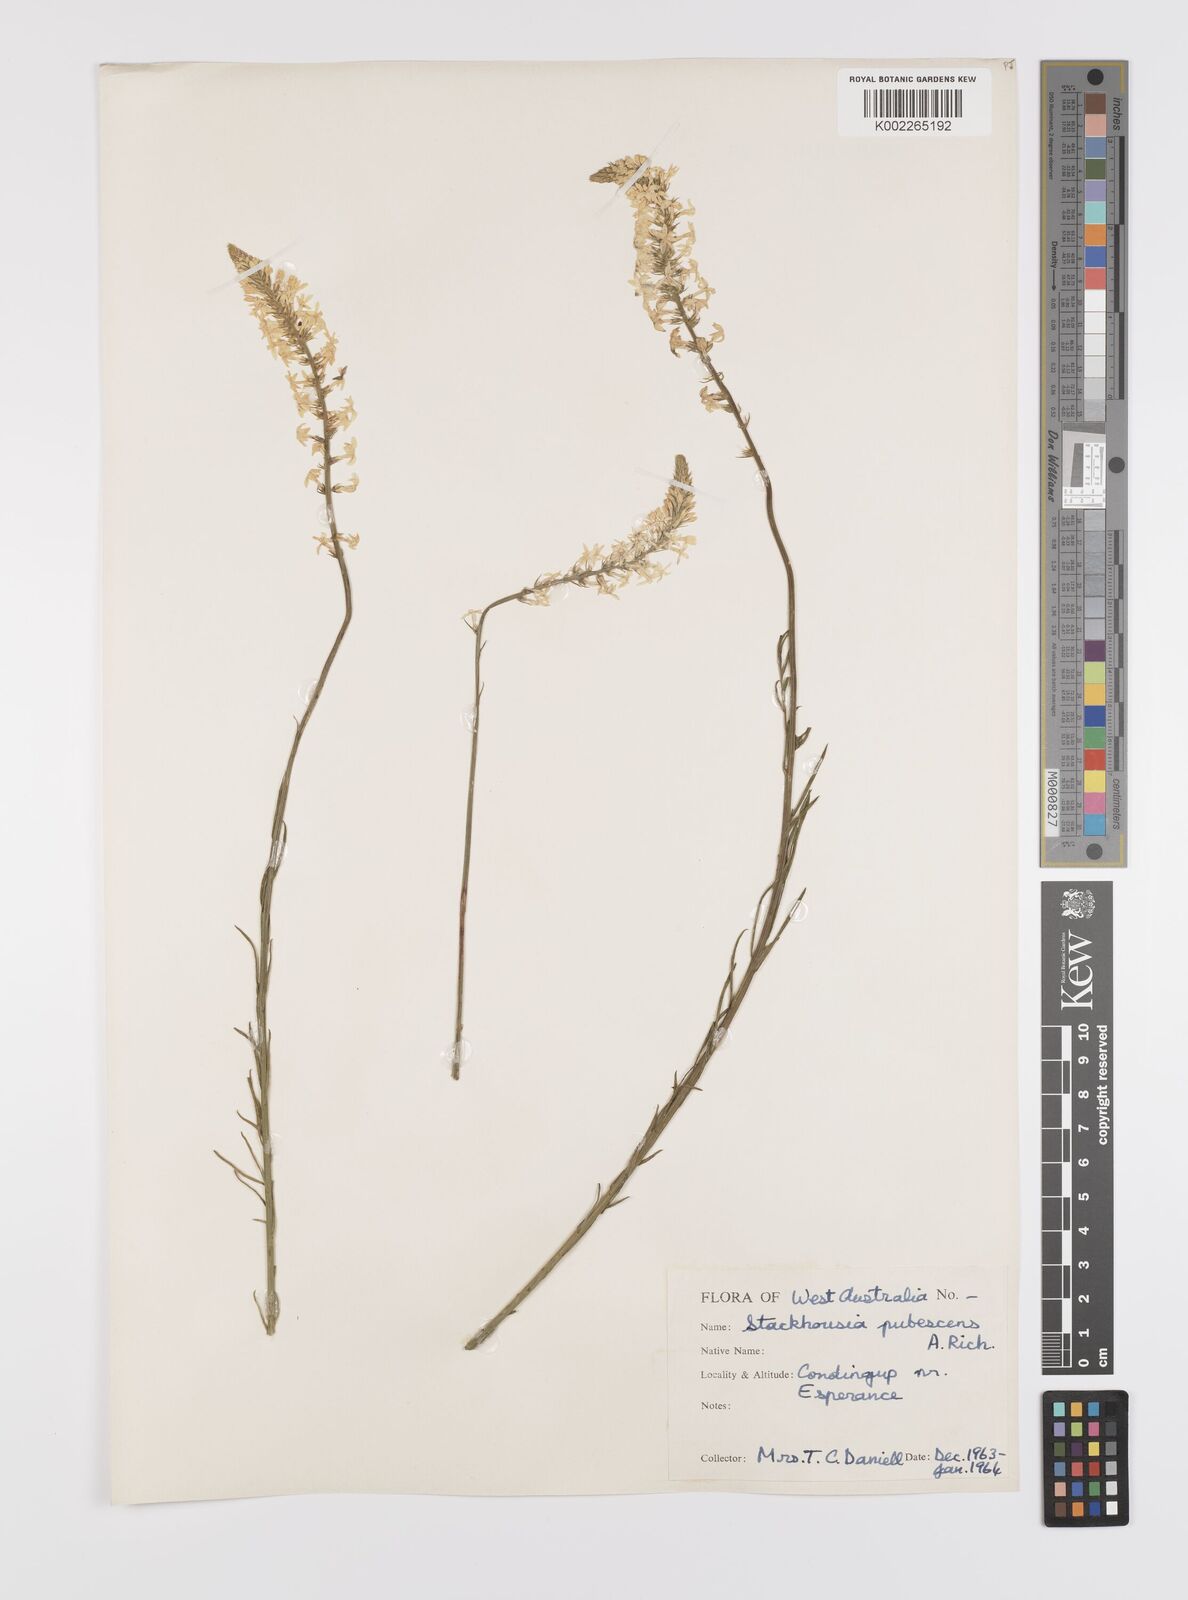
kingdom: Plantae
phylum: Tracheophyta
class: Magnoliopsida
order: Celastrales
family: Celastraceae
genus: Stackhousia
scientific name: Stackhousia monogyna
